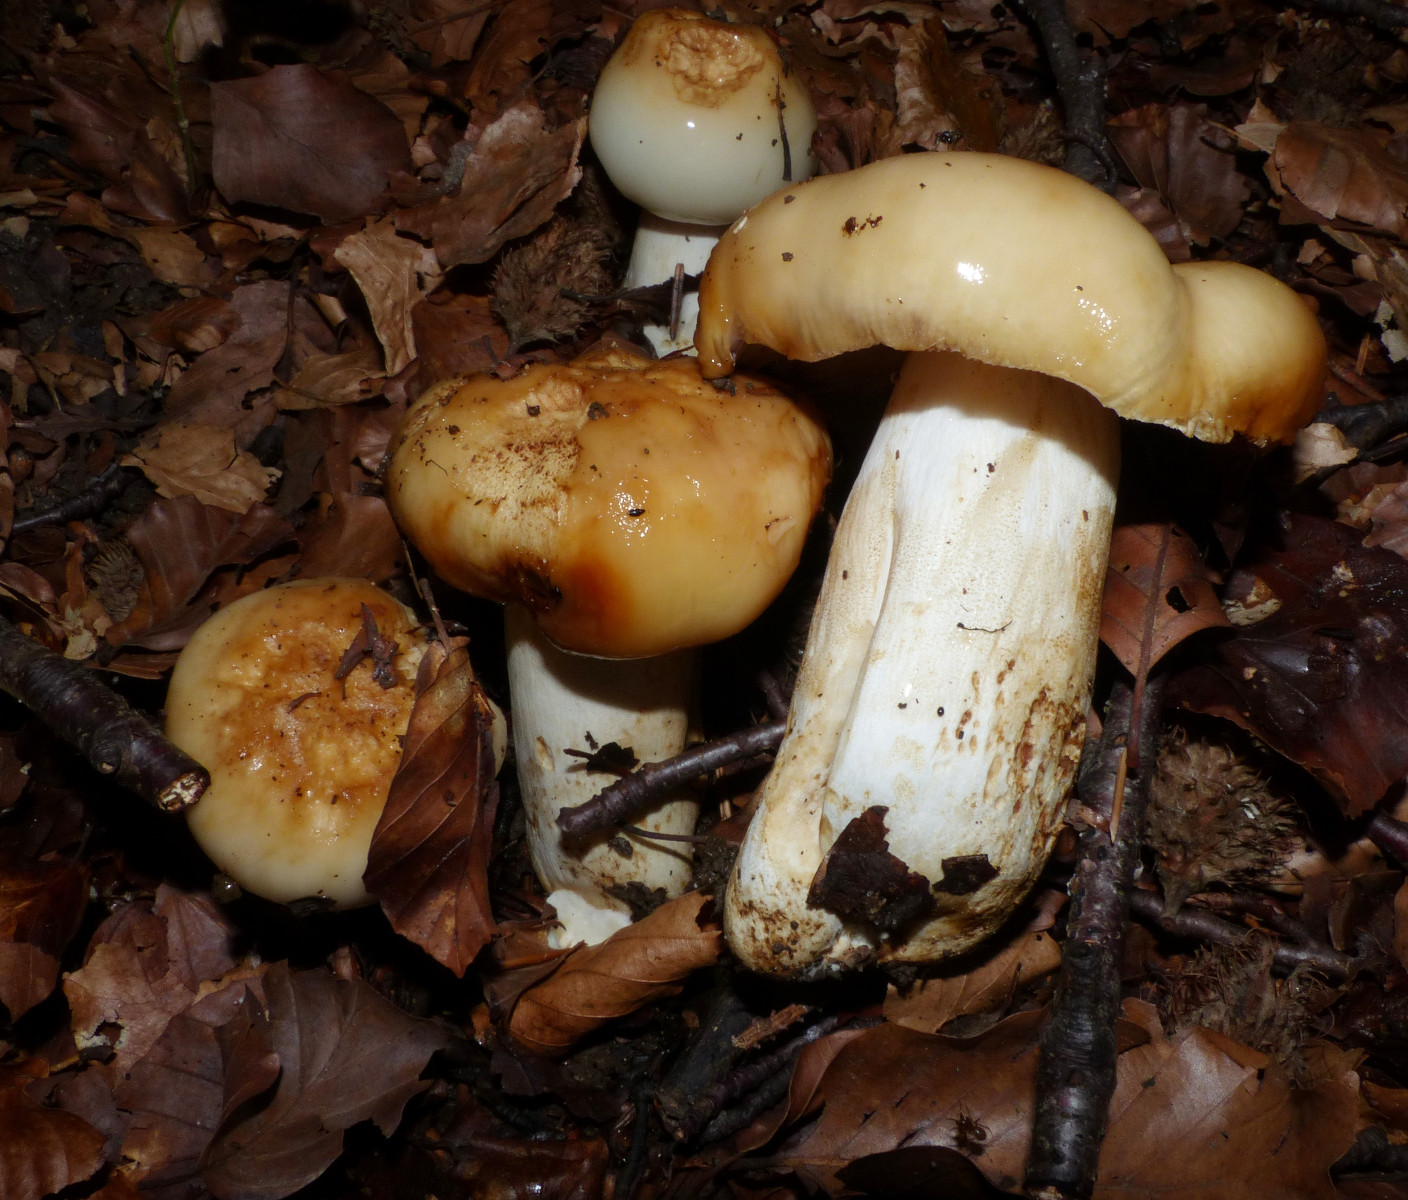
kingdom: Fungi
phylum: Basidiomycota
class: Agaricomycetes
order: Russulales
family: Russulaceae
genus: Russula
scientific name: Russula illota
